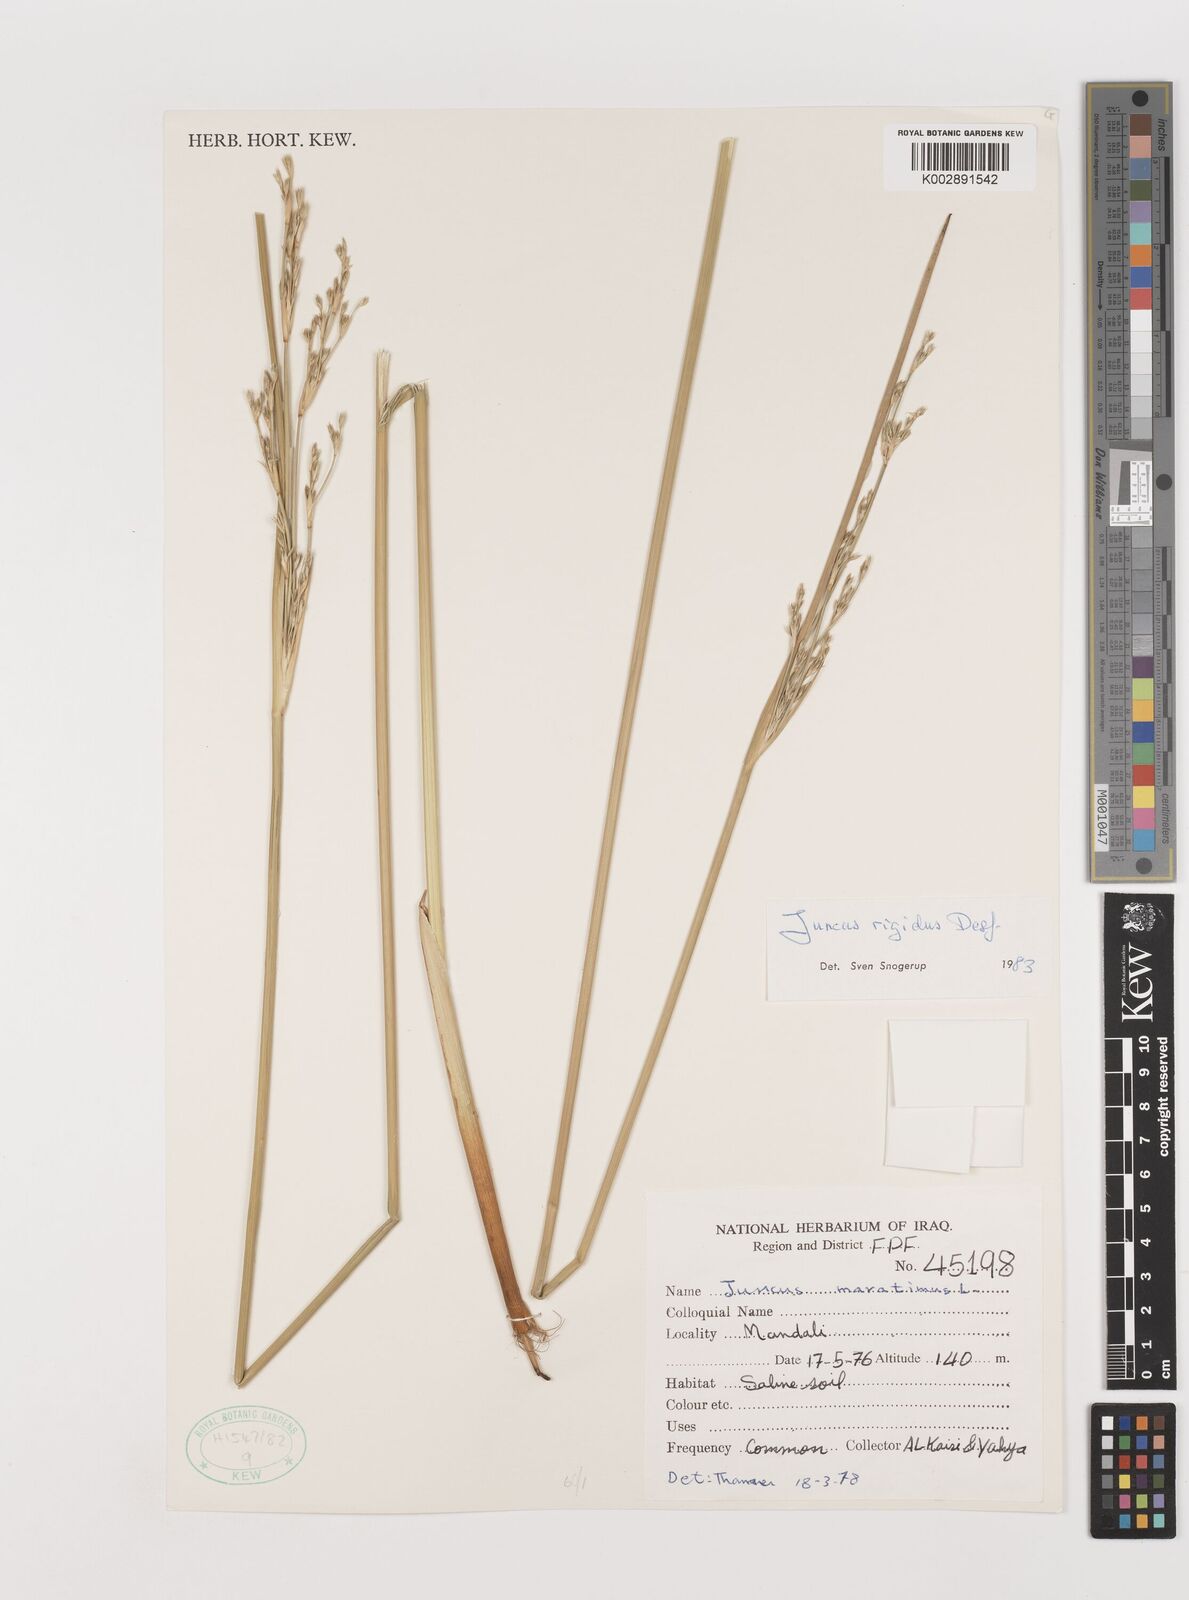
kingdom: Plantae
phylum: Tracheophyta
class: Liliopsida
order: Poales
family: Juncaceae
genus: Juncus
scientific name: Juncus rigidus
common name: Hard sea rush
